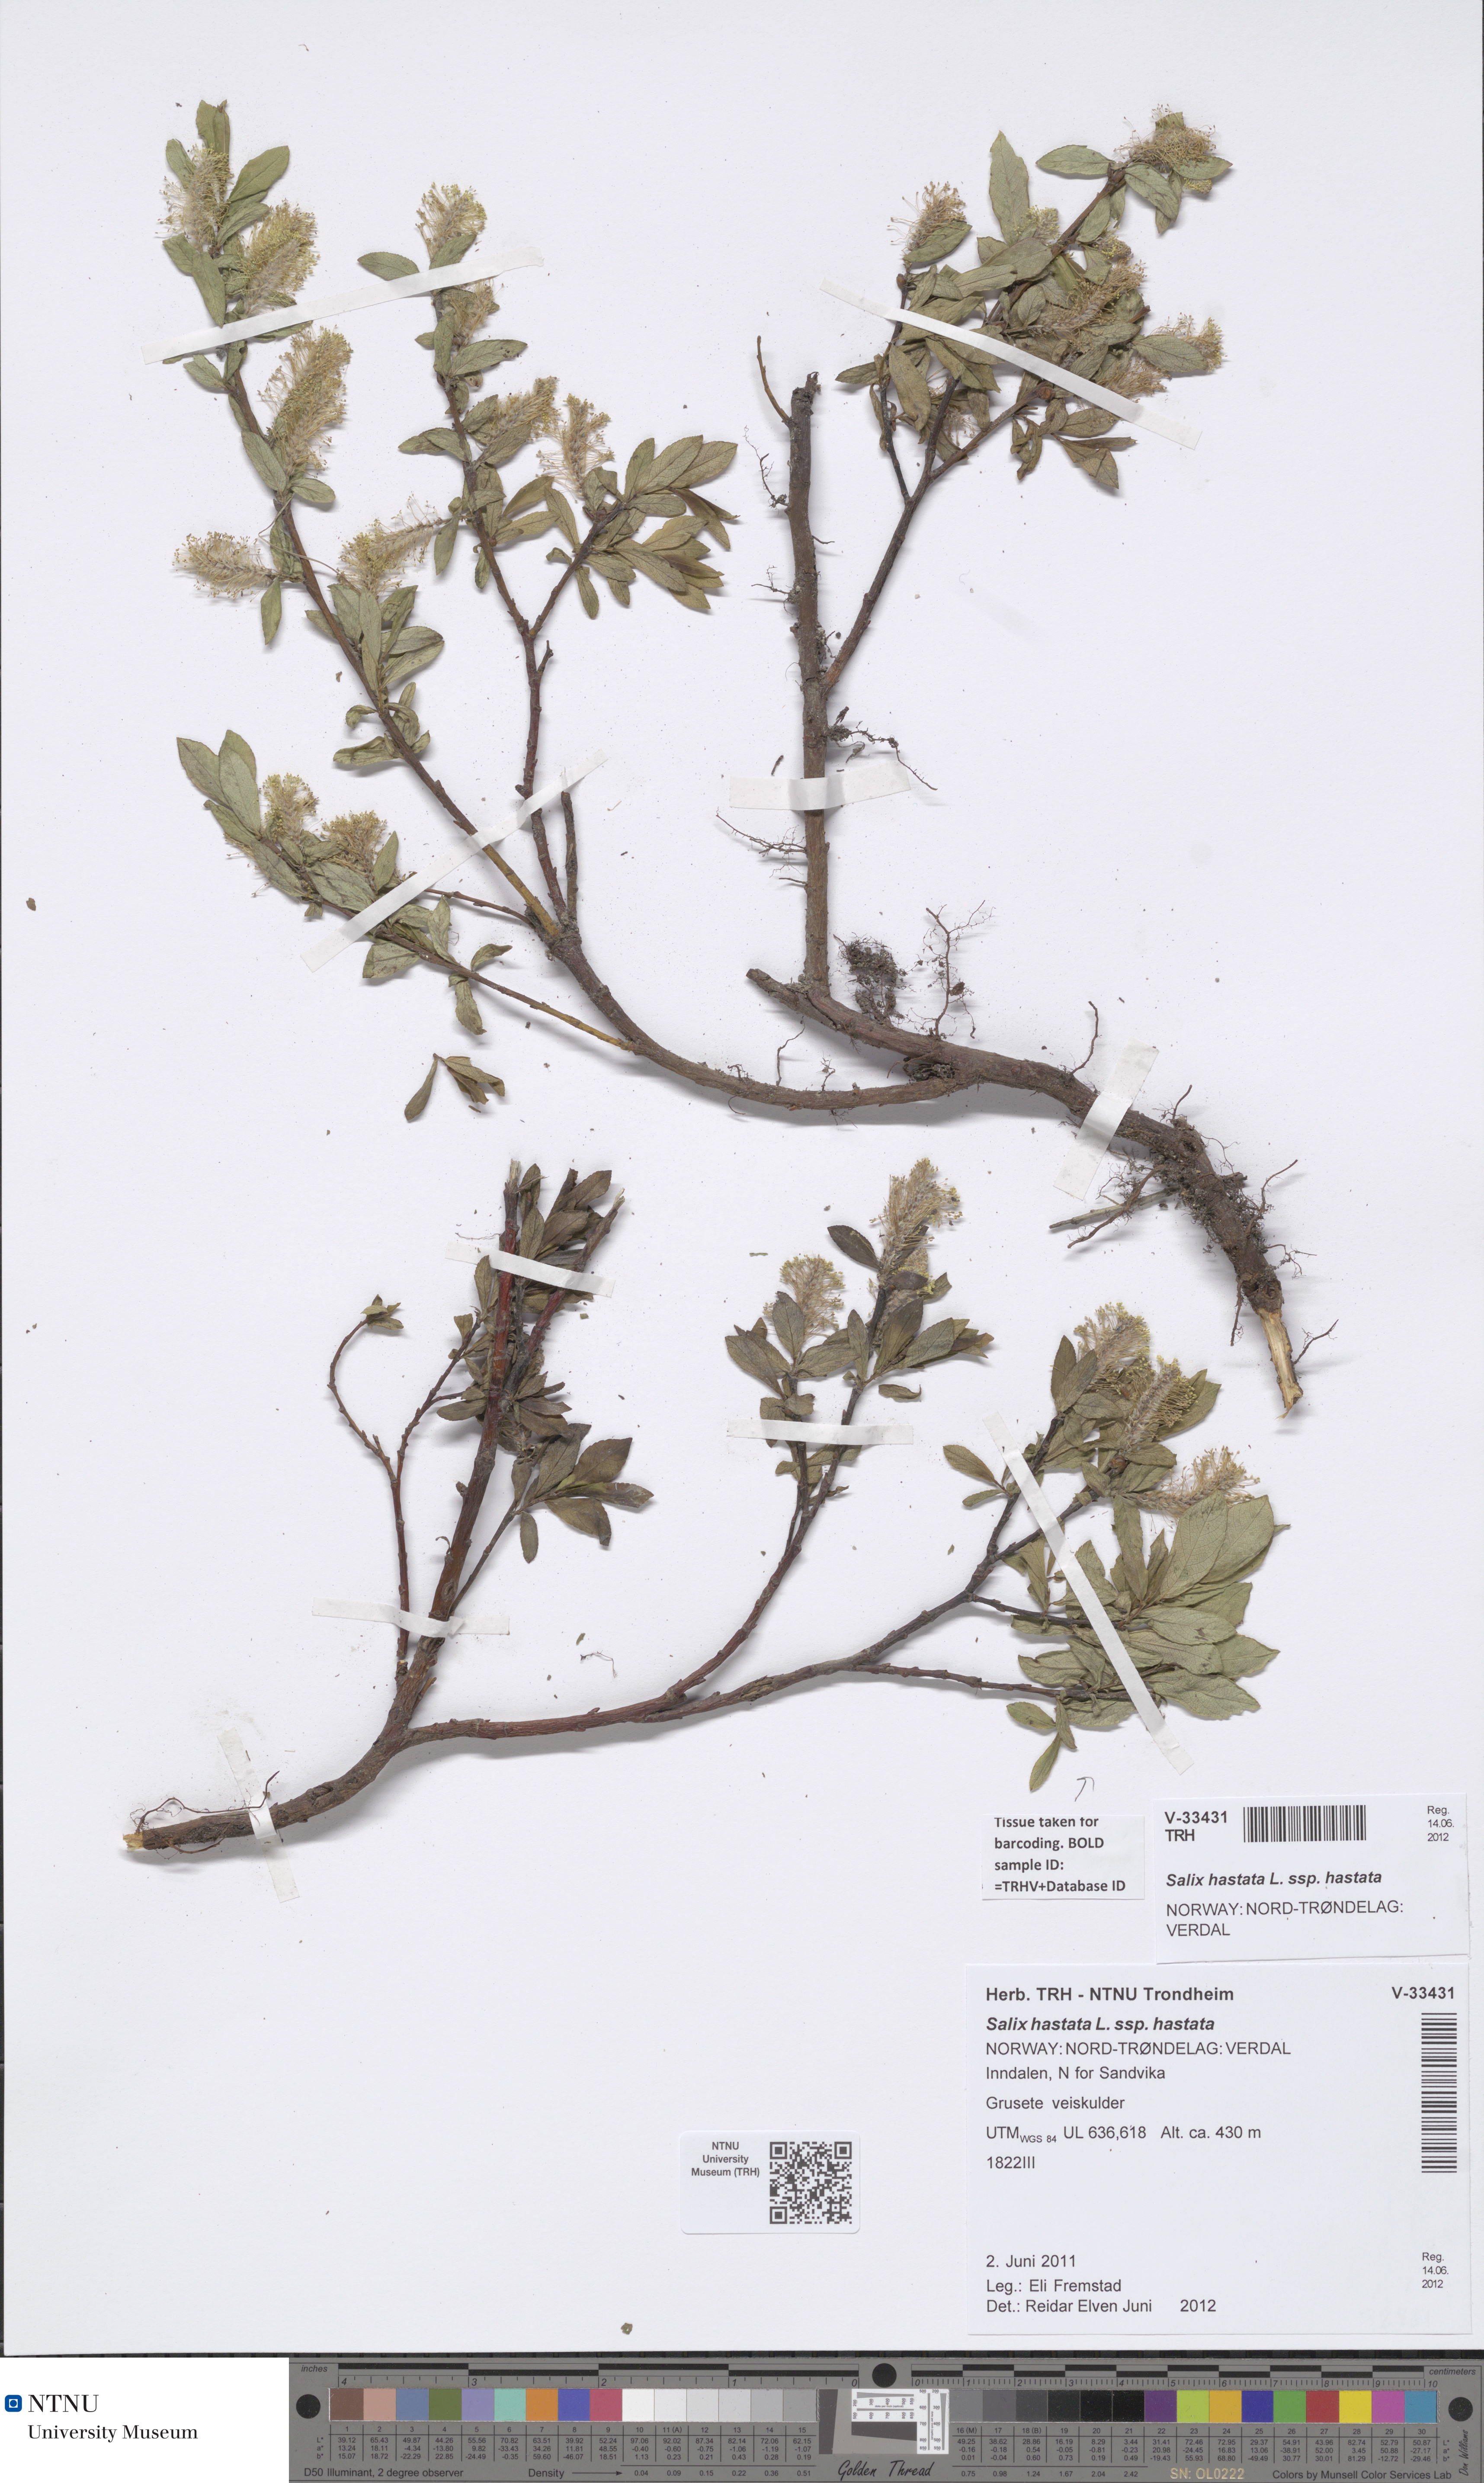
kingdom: Plantae
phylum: Tracheophyta
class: Magnoliopsida
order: Malpighiales
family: Salicaceae
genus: Salix
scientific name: Salix hastata
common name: Halberd willow
